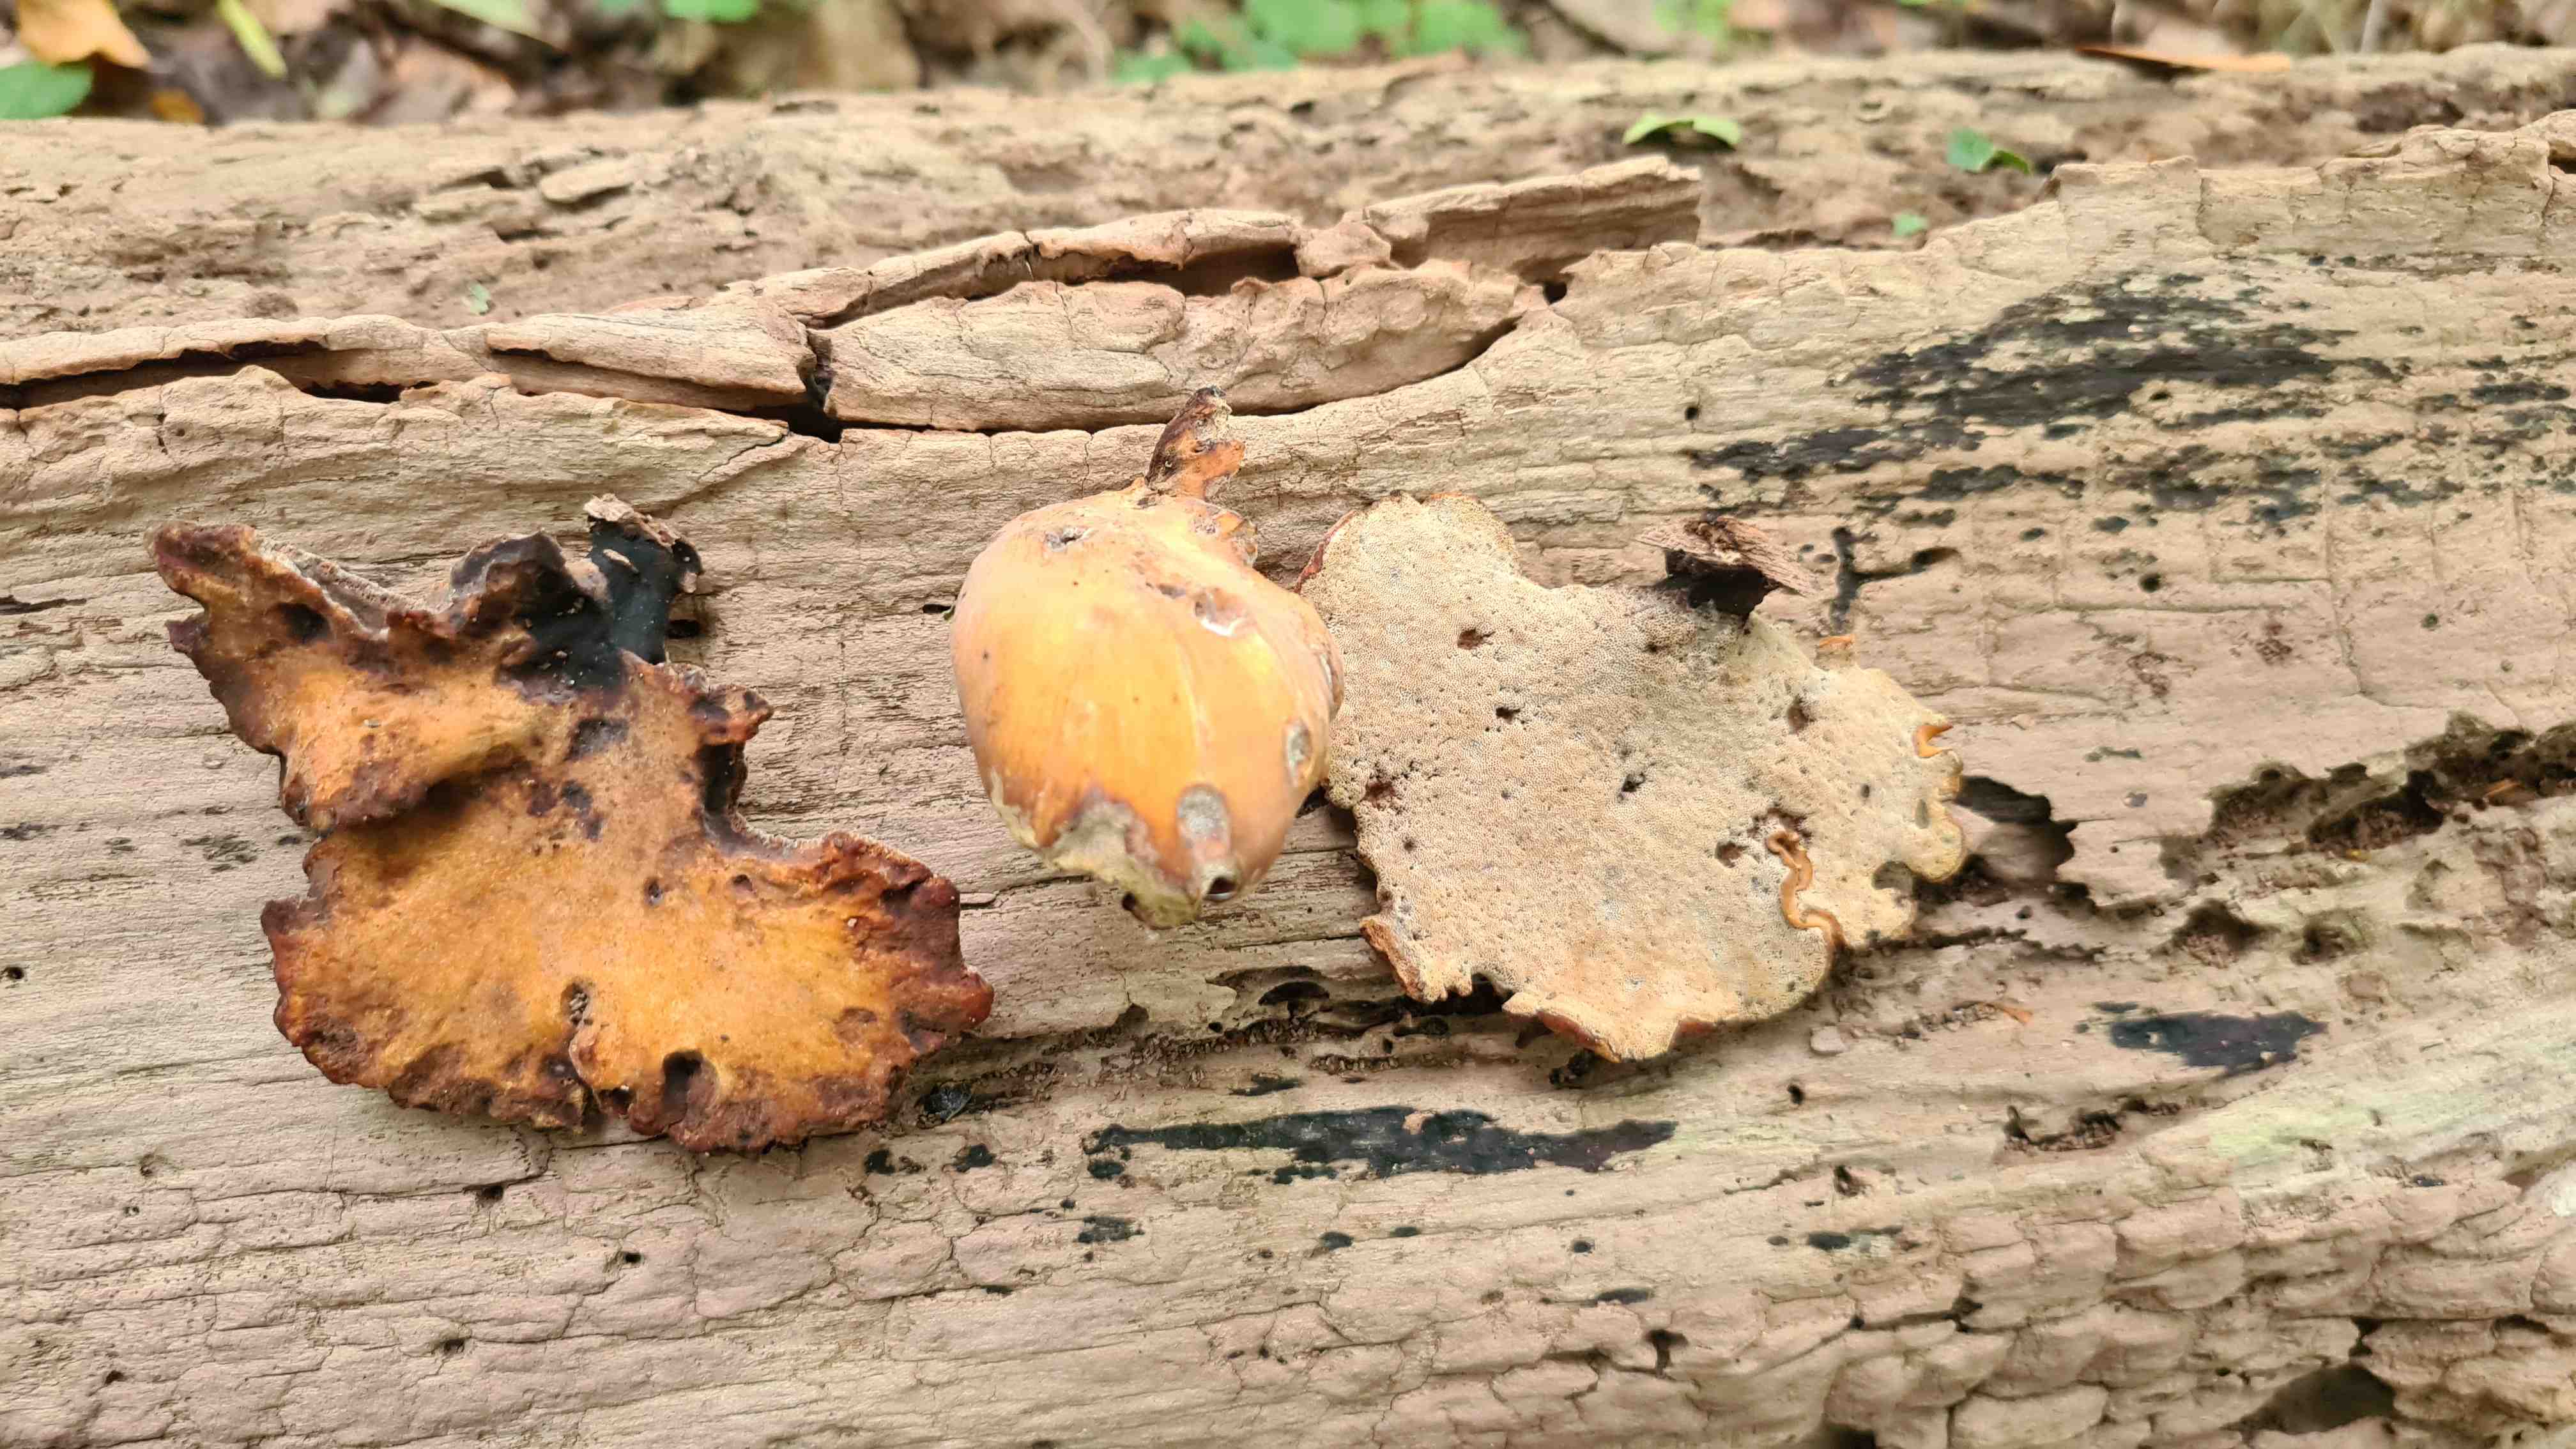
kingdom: Fungi
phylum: Basidiomycota
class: Agaricomycetes
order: Polyporales
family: Polyporaceae
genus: Cerioporus
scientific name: Cerioporus varius
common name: foranderlig stilkporesvamp
